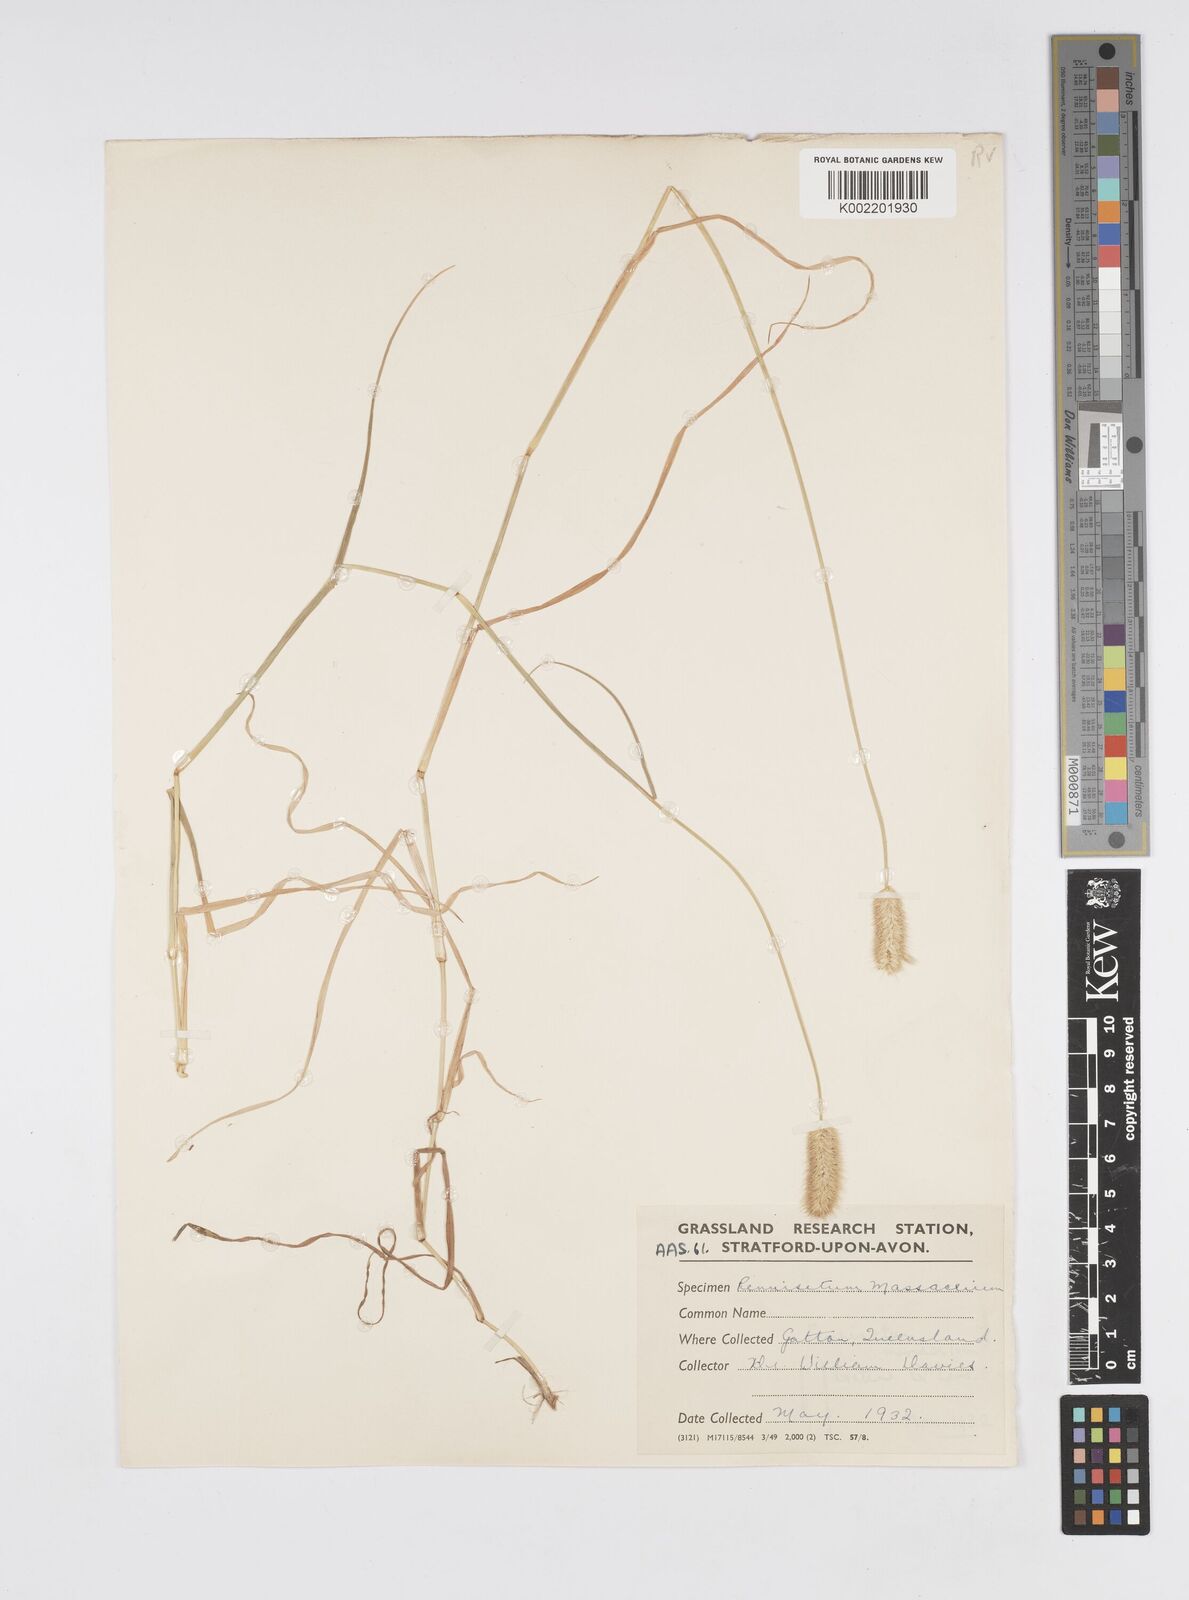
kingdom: Plantae
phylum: Tracheophyta
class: Liliopsida
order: Poales
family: Poaceae
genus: Cenchrus
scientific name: Cenchrus mezianus
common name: Bamboo grass
